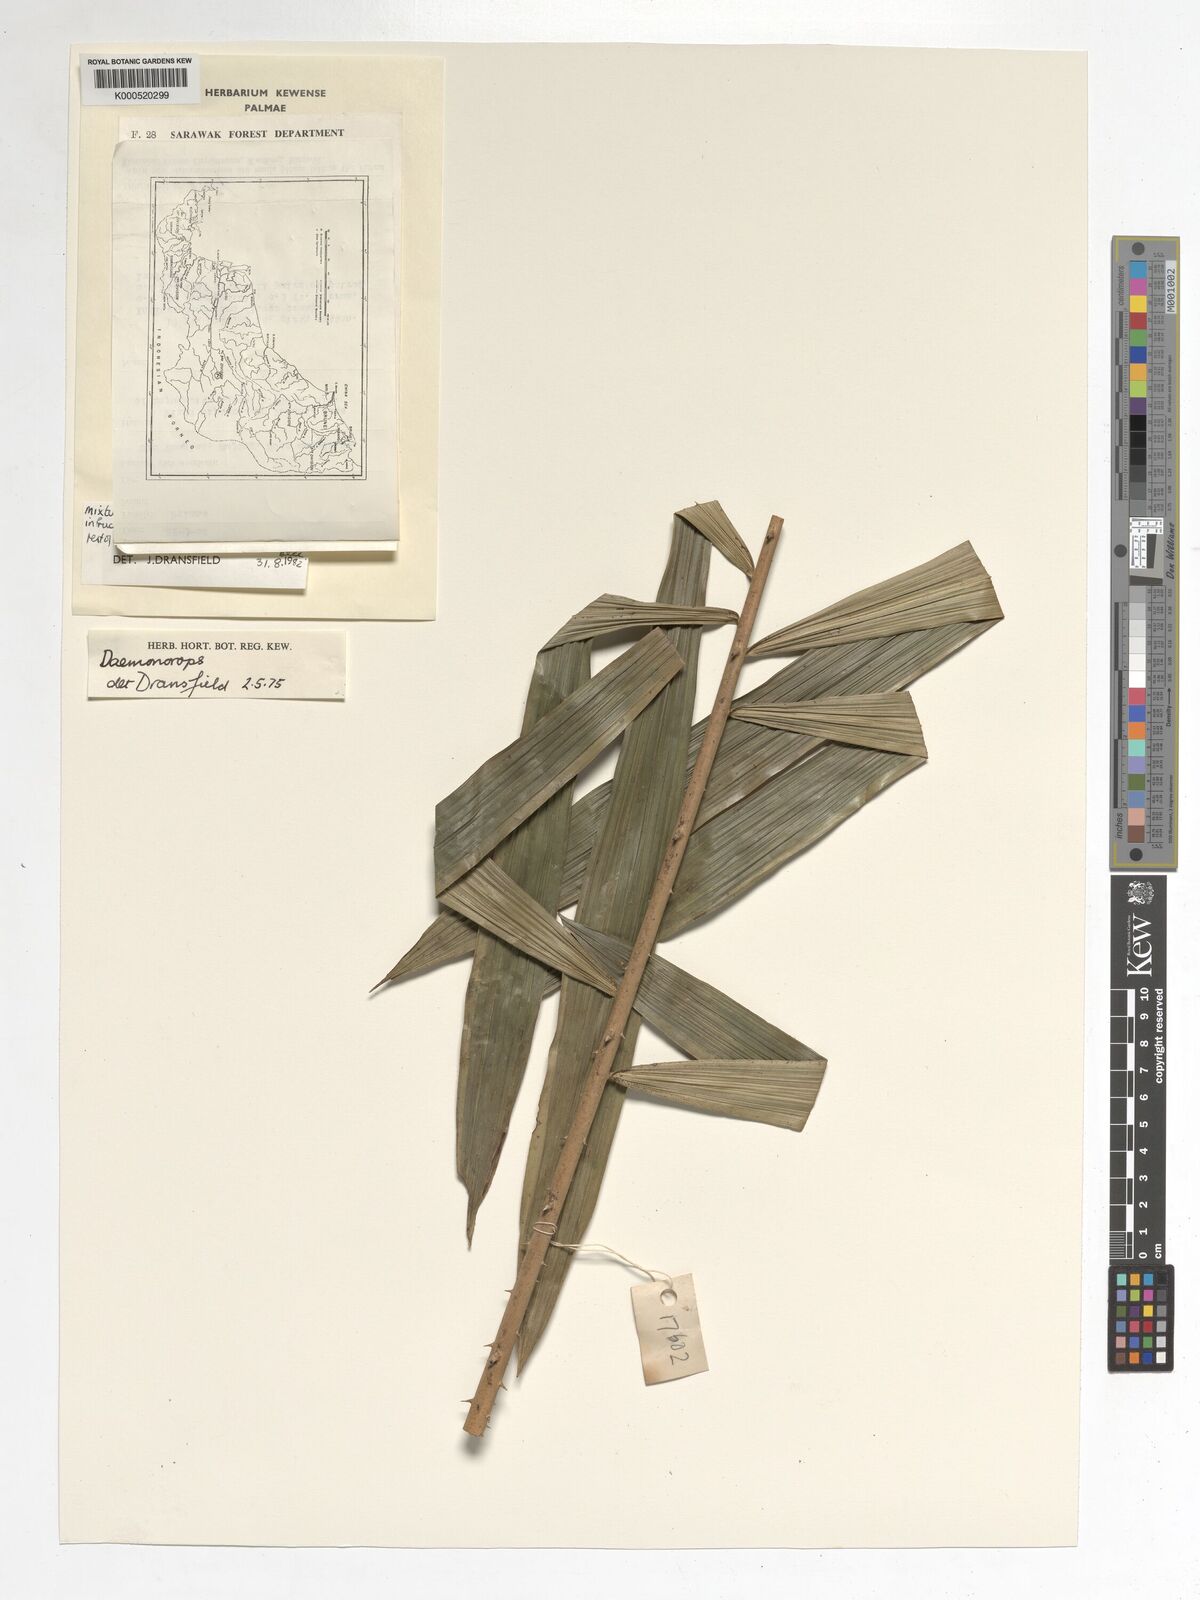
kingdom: Plantae
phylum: Tracheophyta
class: Liliopsida
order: Arecales
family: Arecaceae
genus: Calamus
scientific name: Calamus ater
